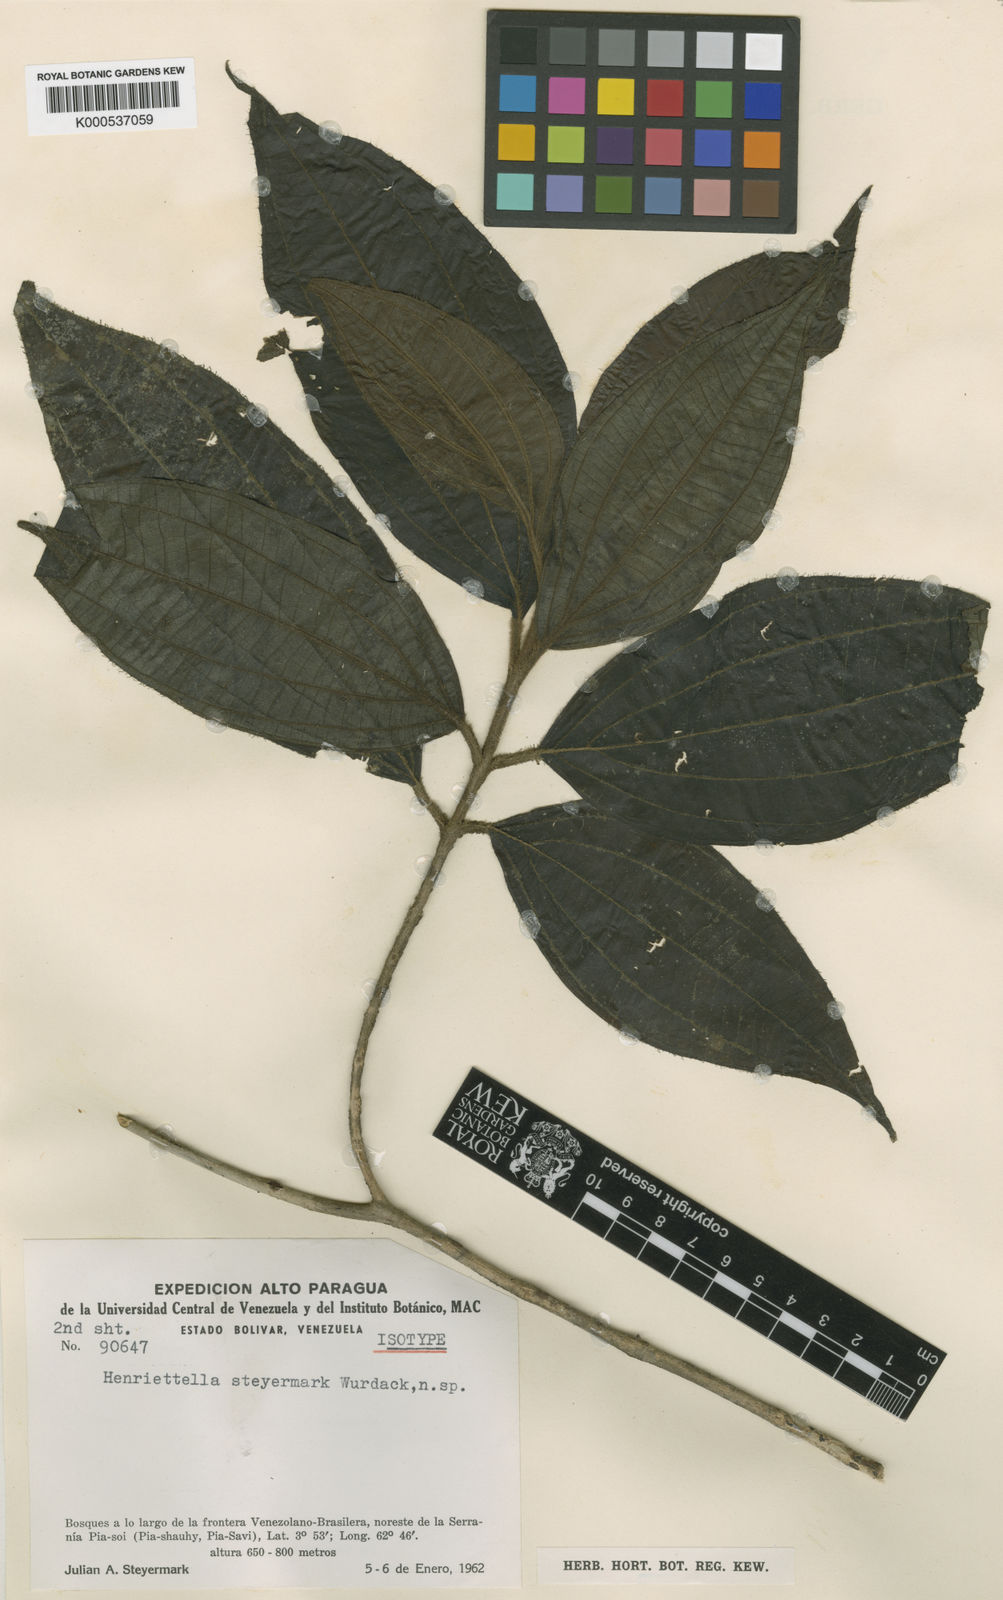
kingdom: Plantae
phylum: Tracheophyta
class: Magnoliopsida
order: Myrtales
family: Melastomataceae
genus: Henriettea
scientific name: Henriettea steyermarkii
